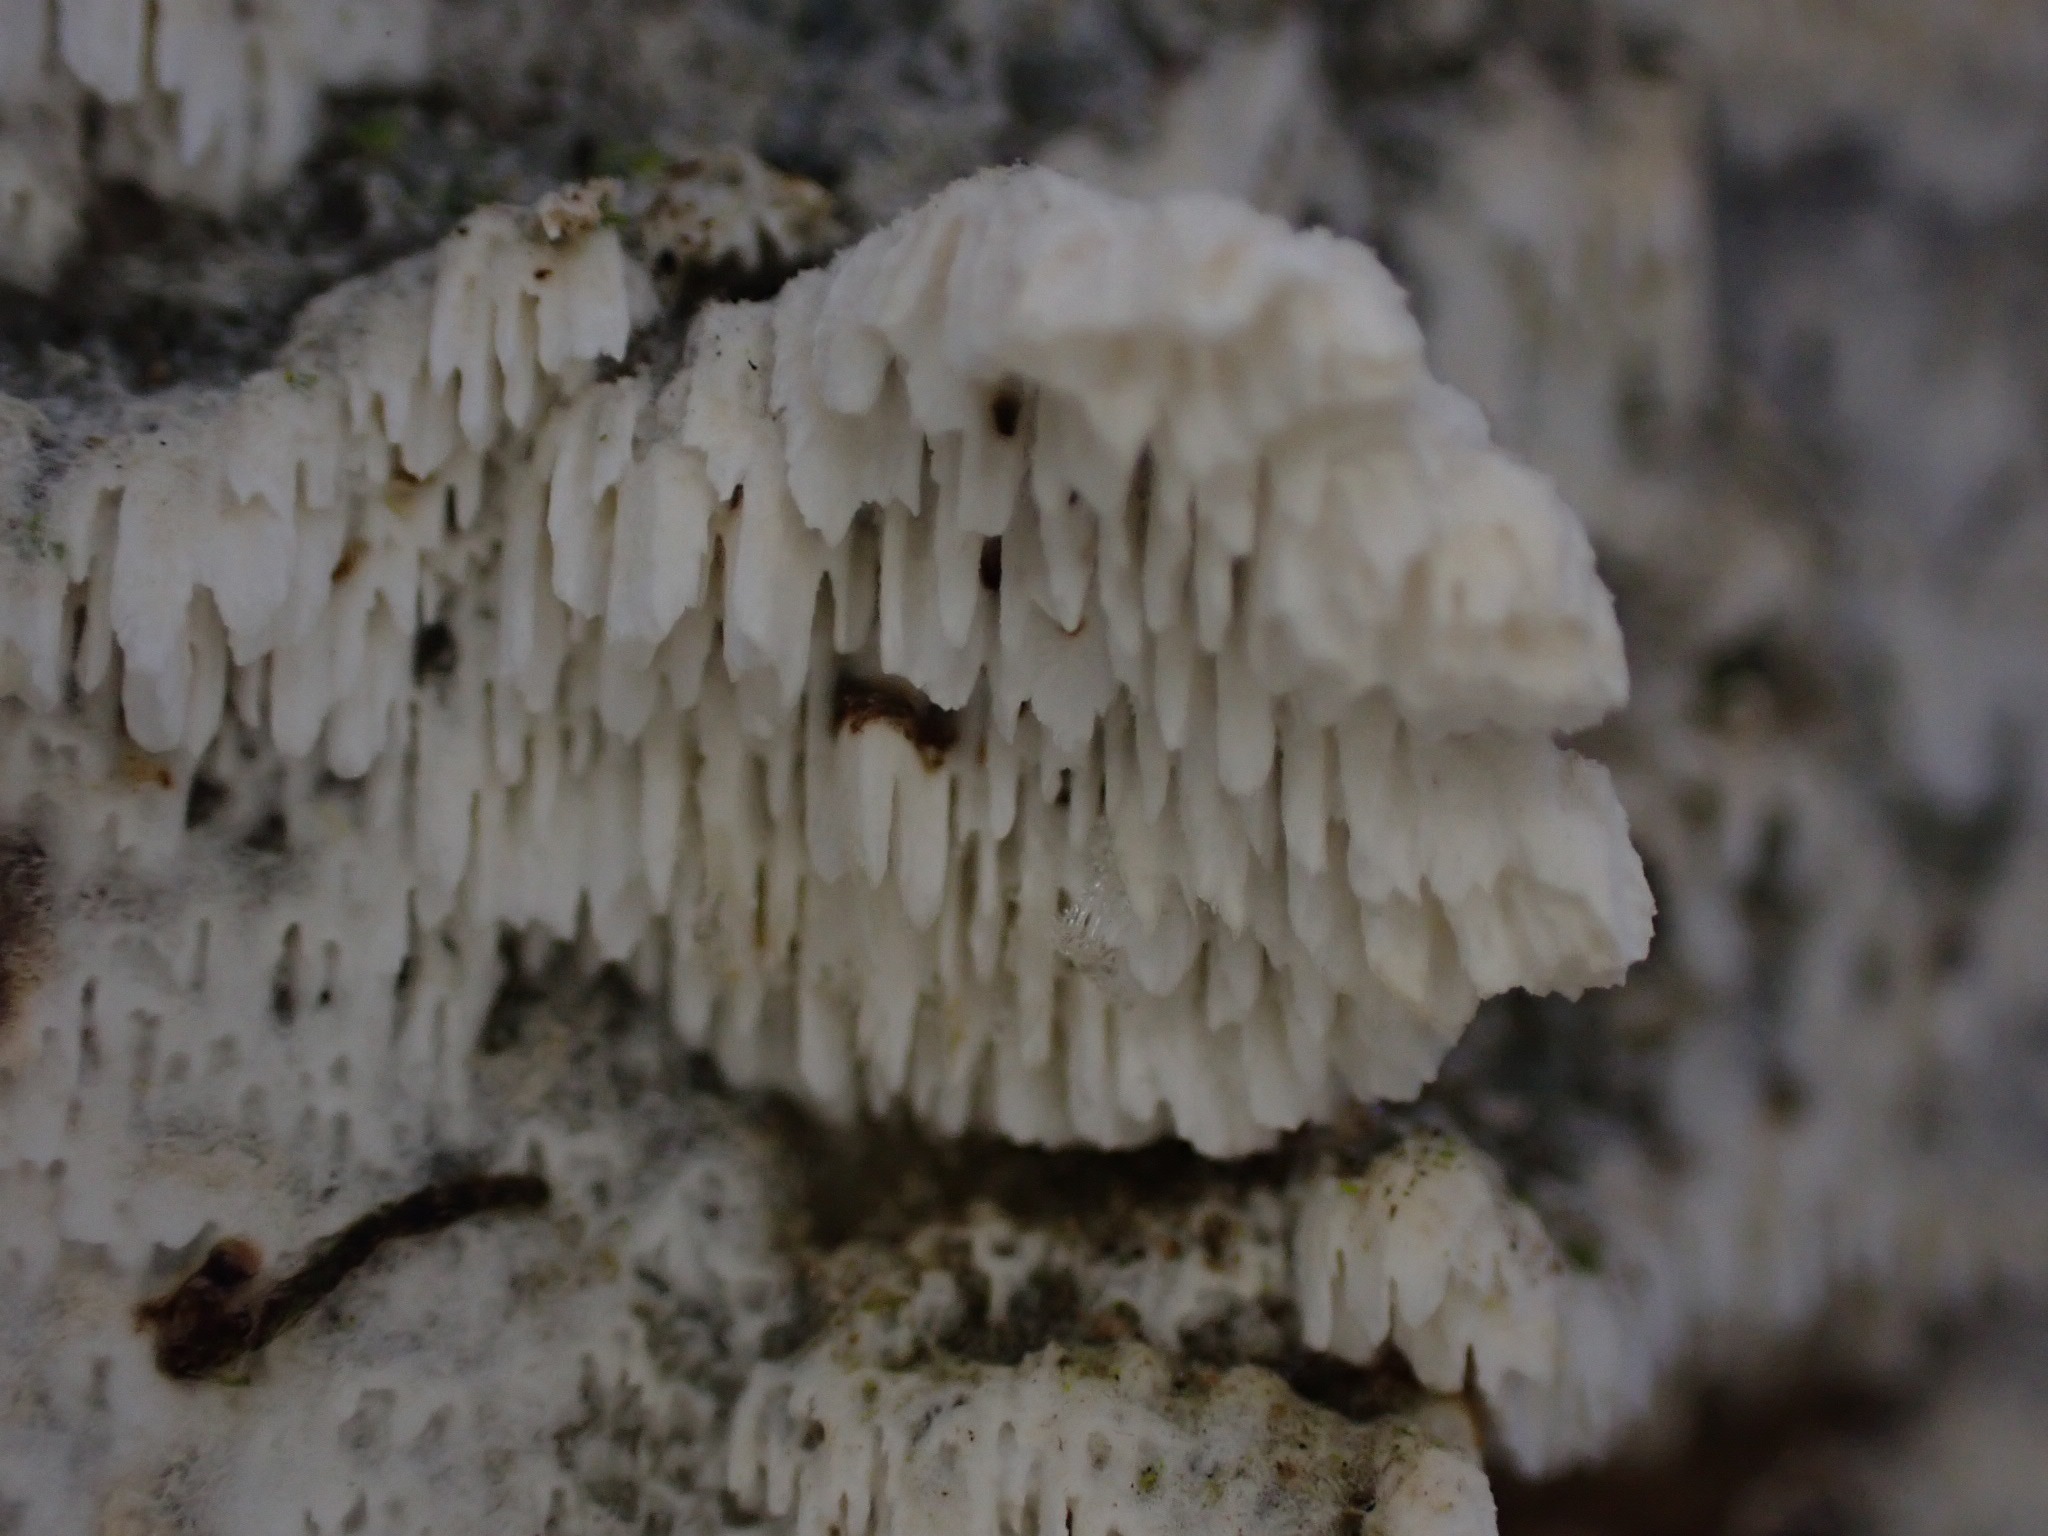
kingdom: Fungi
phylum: Basidiomycota
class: Agaricomycetes
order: Hymenochaetales
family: Schizoporaceae
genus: Schizopora
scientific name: Schizopora paradoxa
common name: hvid tandsvamp
